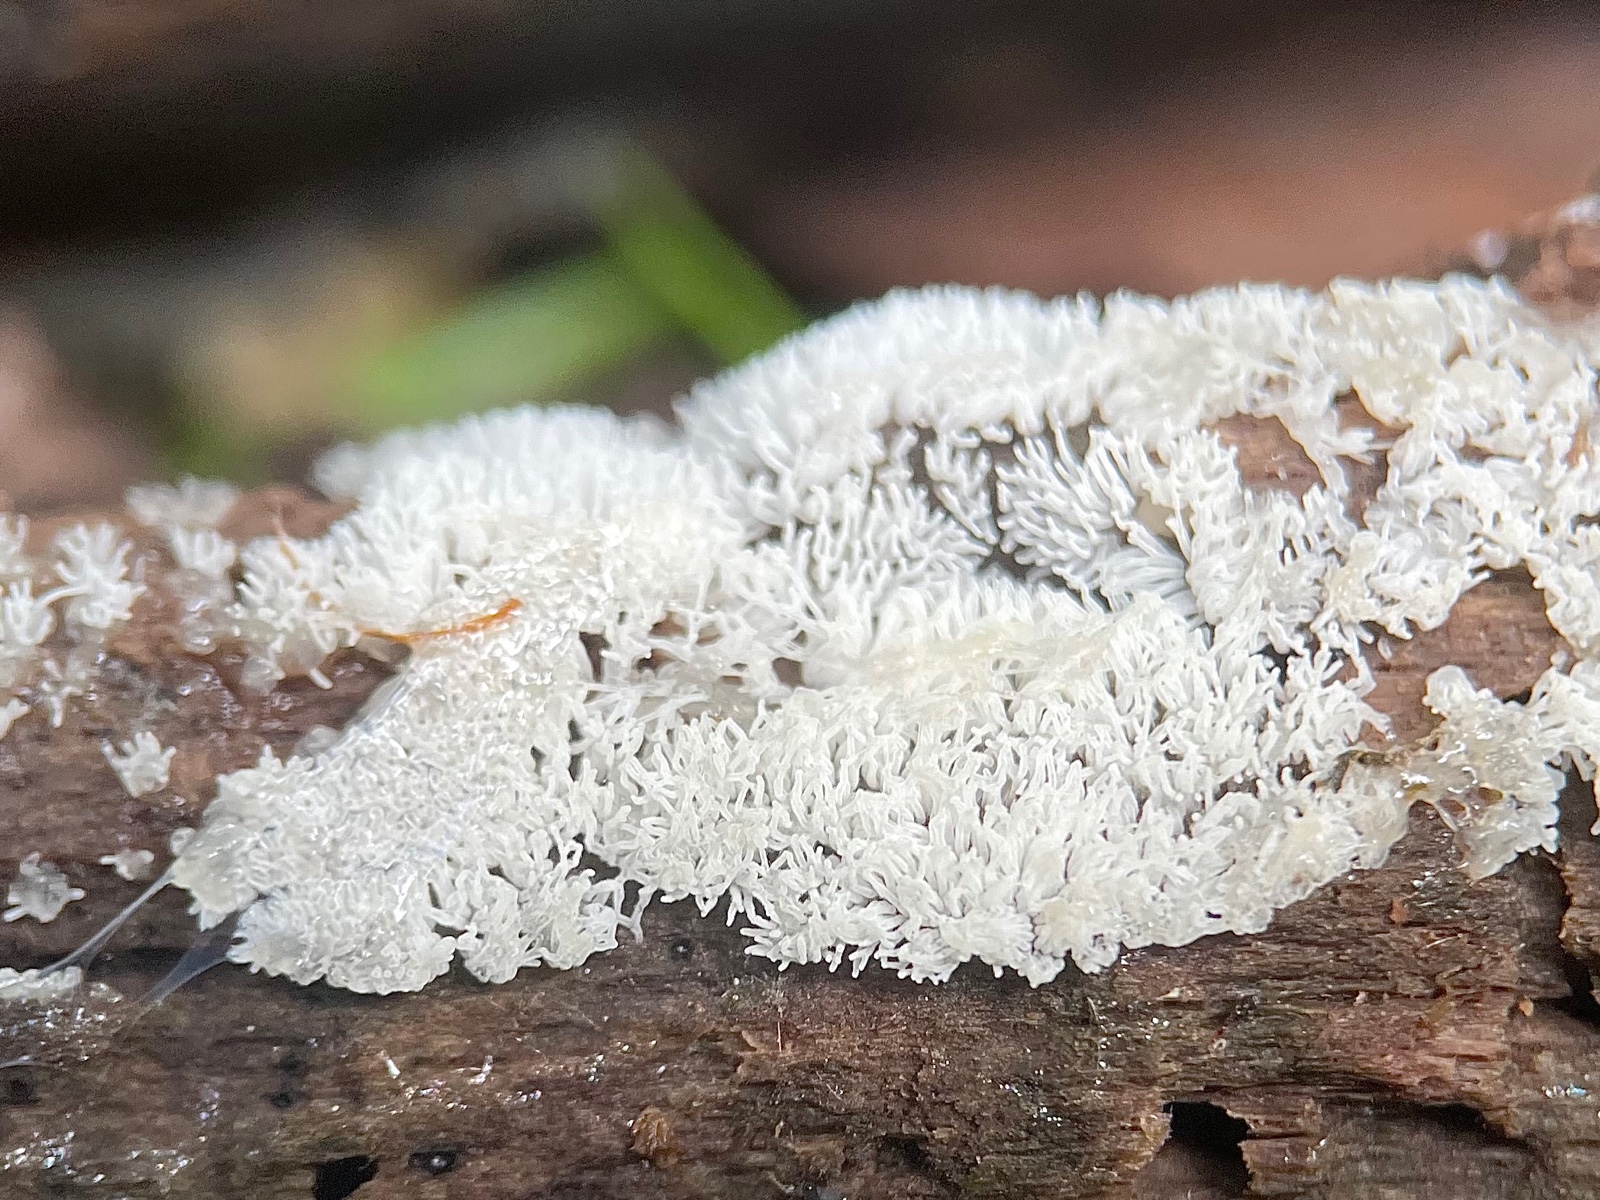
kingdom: Protozoa
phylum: Mycetozoa
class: Protosteliomycetes
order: Ceratiomyxales
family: Ceratiomyxaceae
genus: Ceratiomyxa
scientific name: Ceratiomyxa fruticulosa
